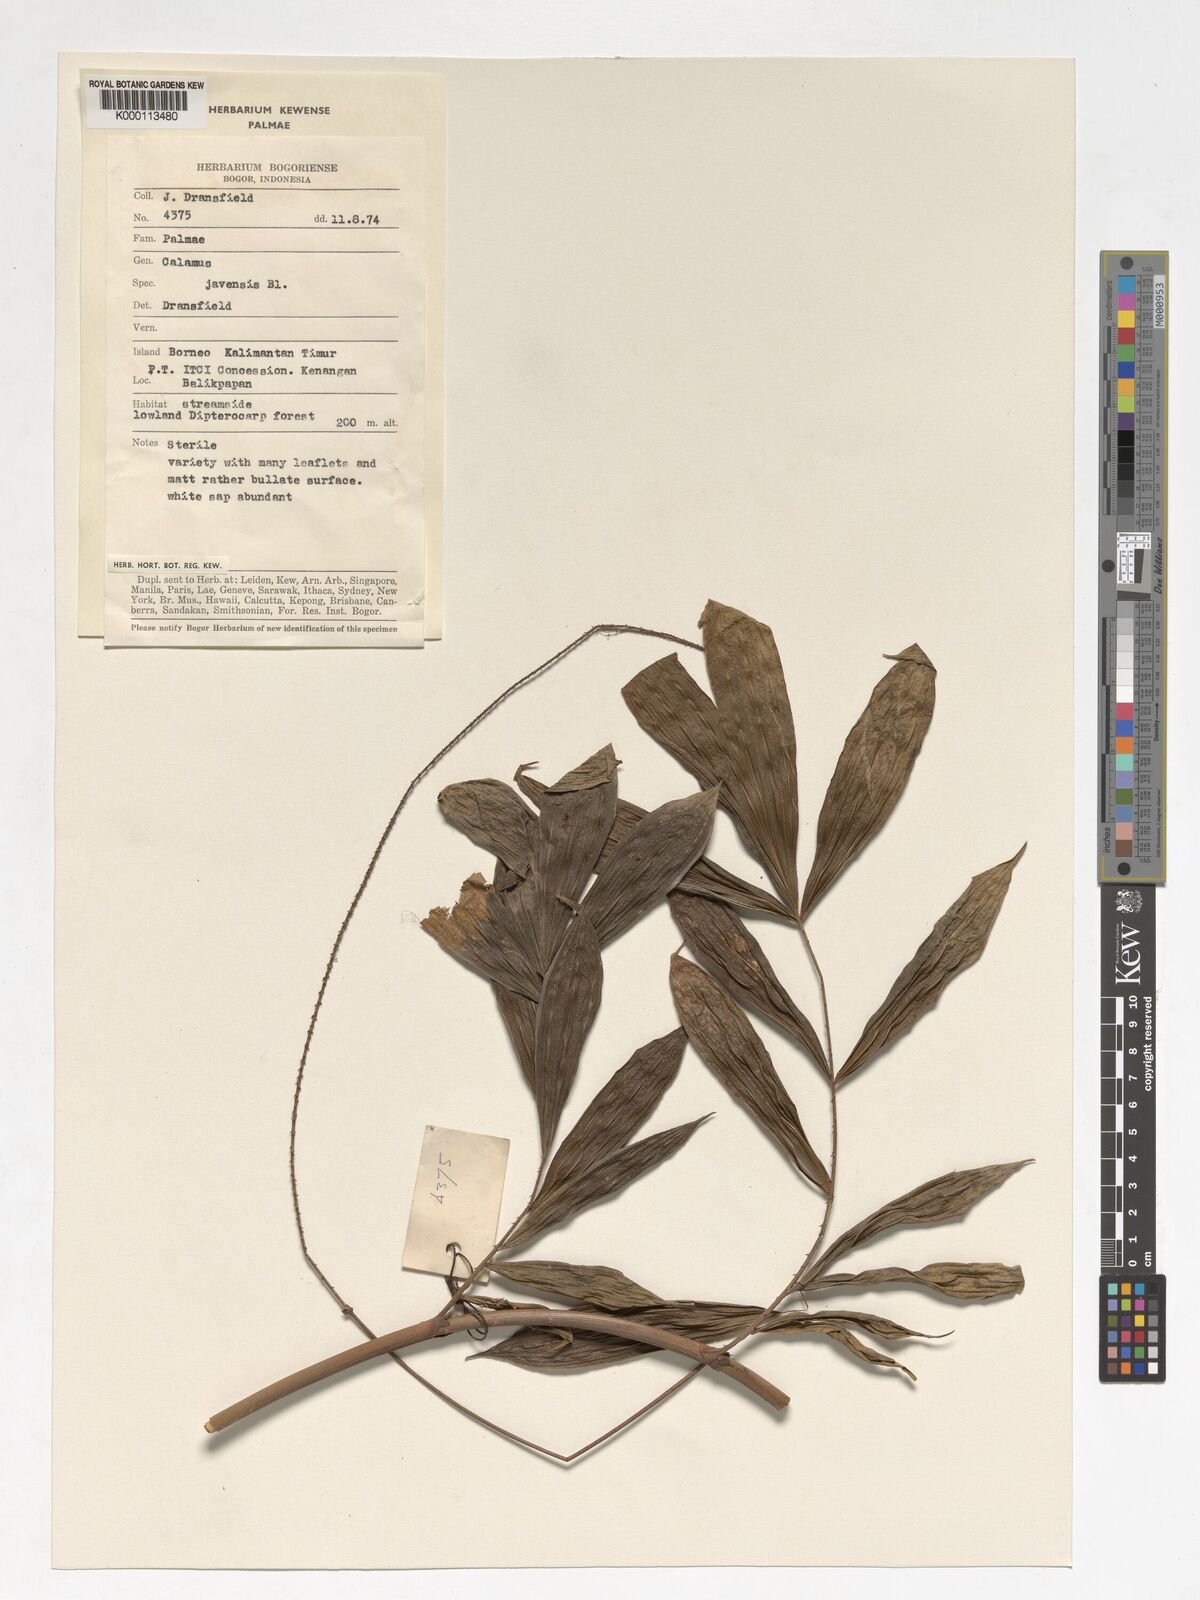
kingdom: Plantae
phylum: Tracheophyta
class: Liliopsida
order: Arecales
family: Arecaceae
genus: Calamus
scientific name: Calamus javensis
